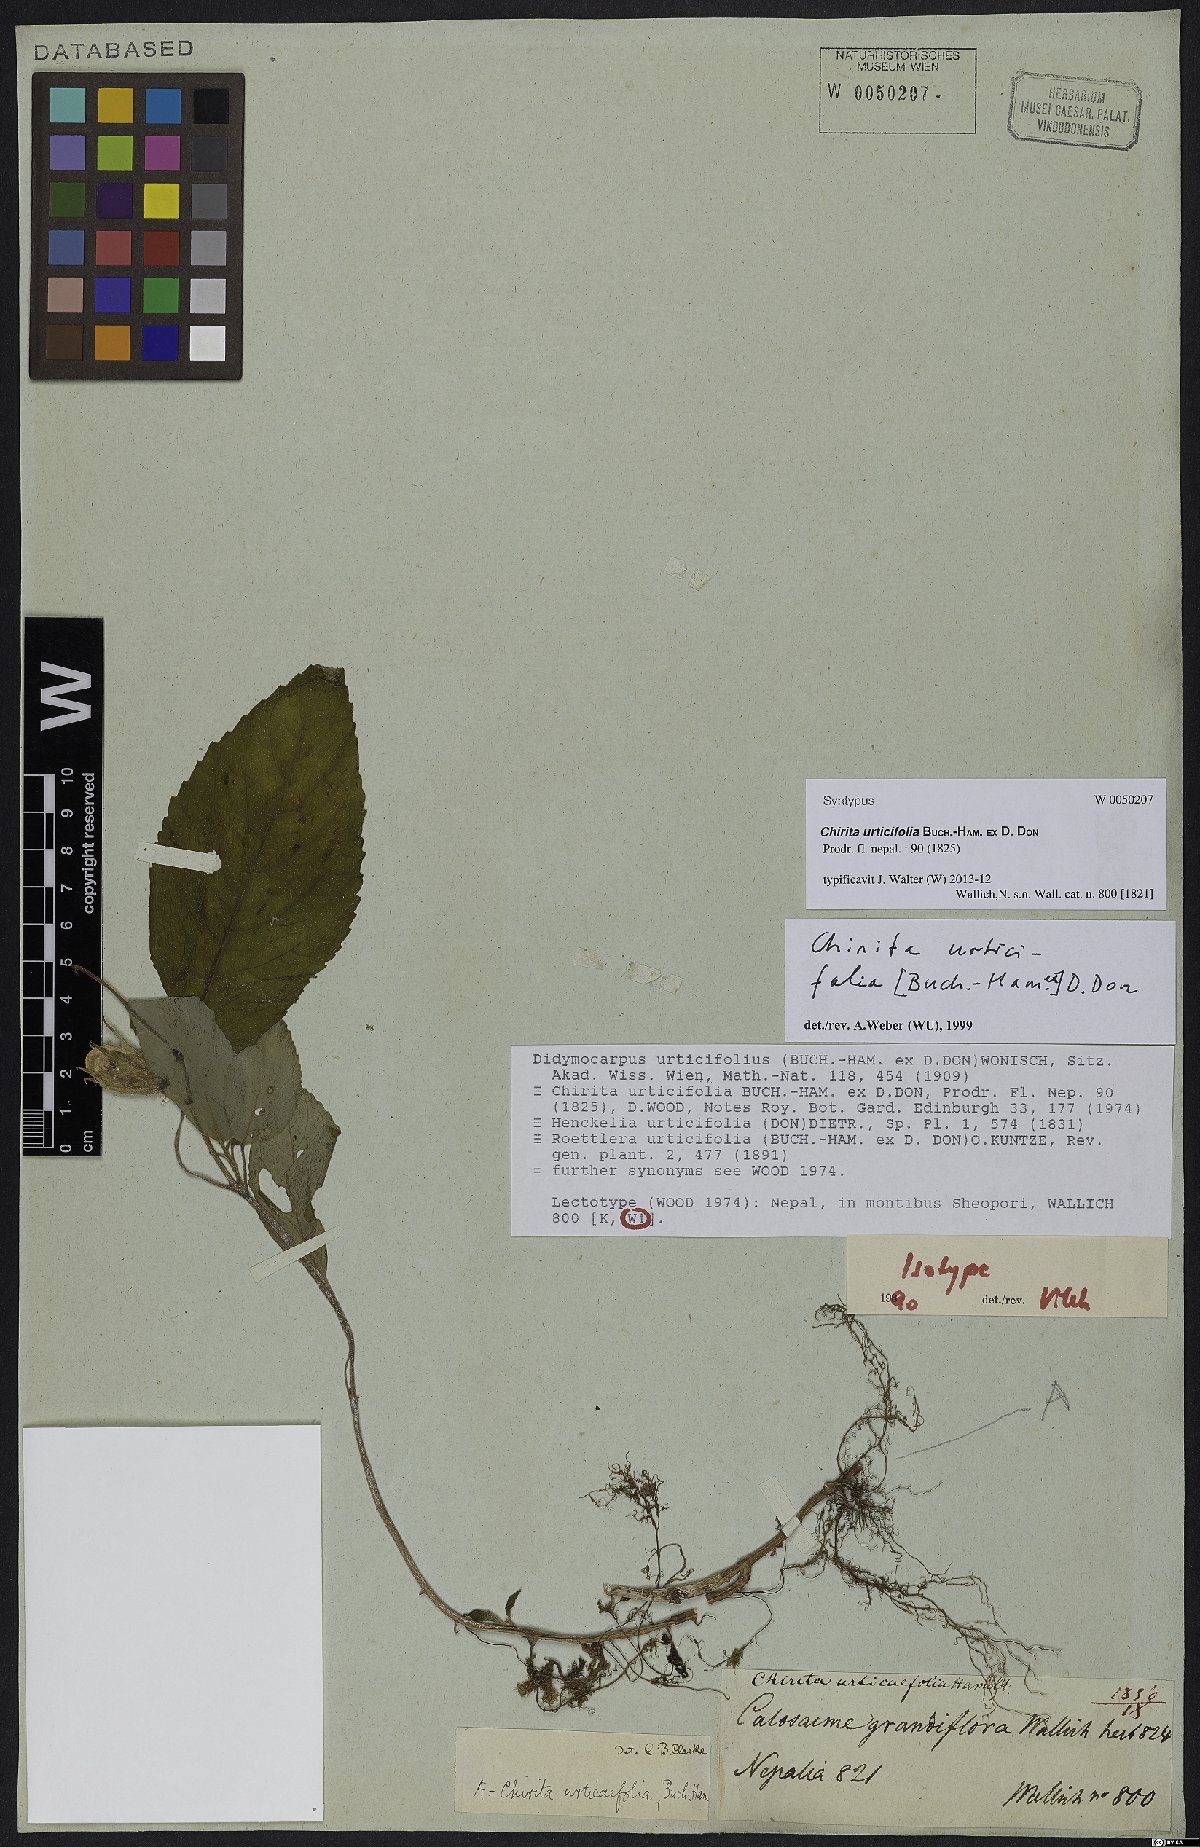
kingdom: Plantae
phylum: Tracheophyta
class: Magnoliopsida
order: Lamiales
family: Gesneriaceae
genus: Henckelia
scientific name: Henckelia urticifolia
